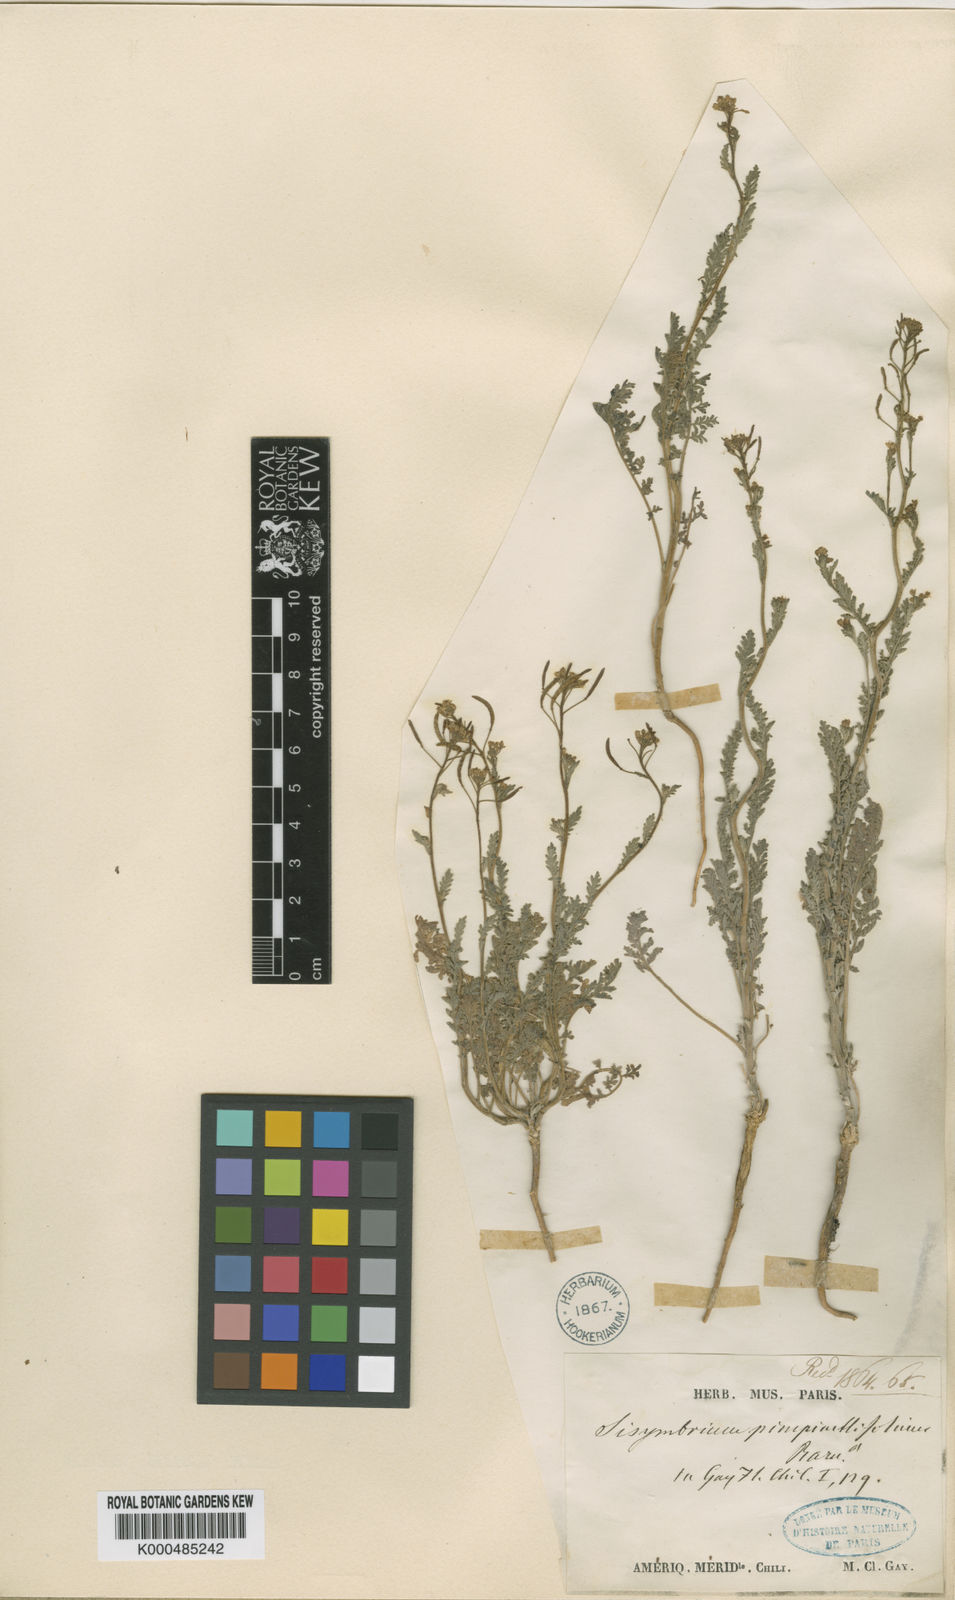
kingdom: Plantae
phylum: Tracheophyta
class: Magnoliopsida
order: Brassicales
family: Brassicaceae
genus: Descurainia
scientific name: Descurainia
